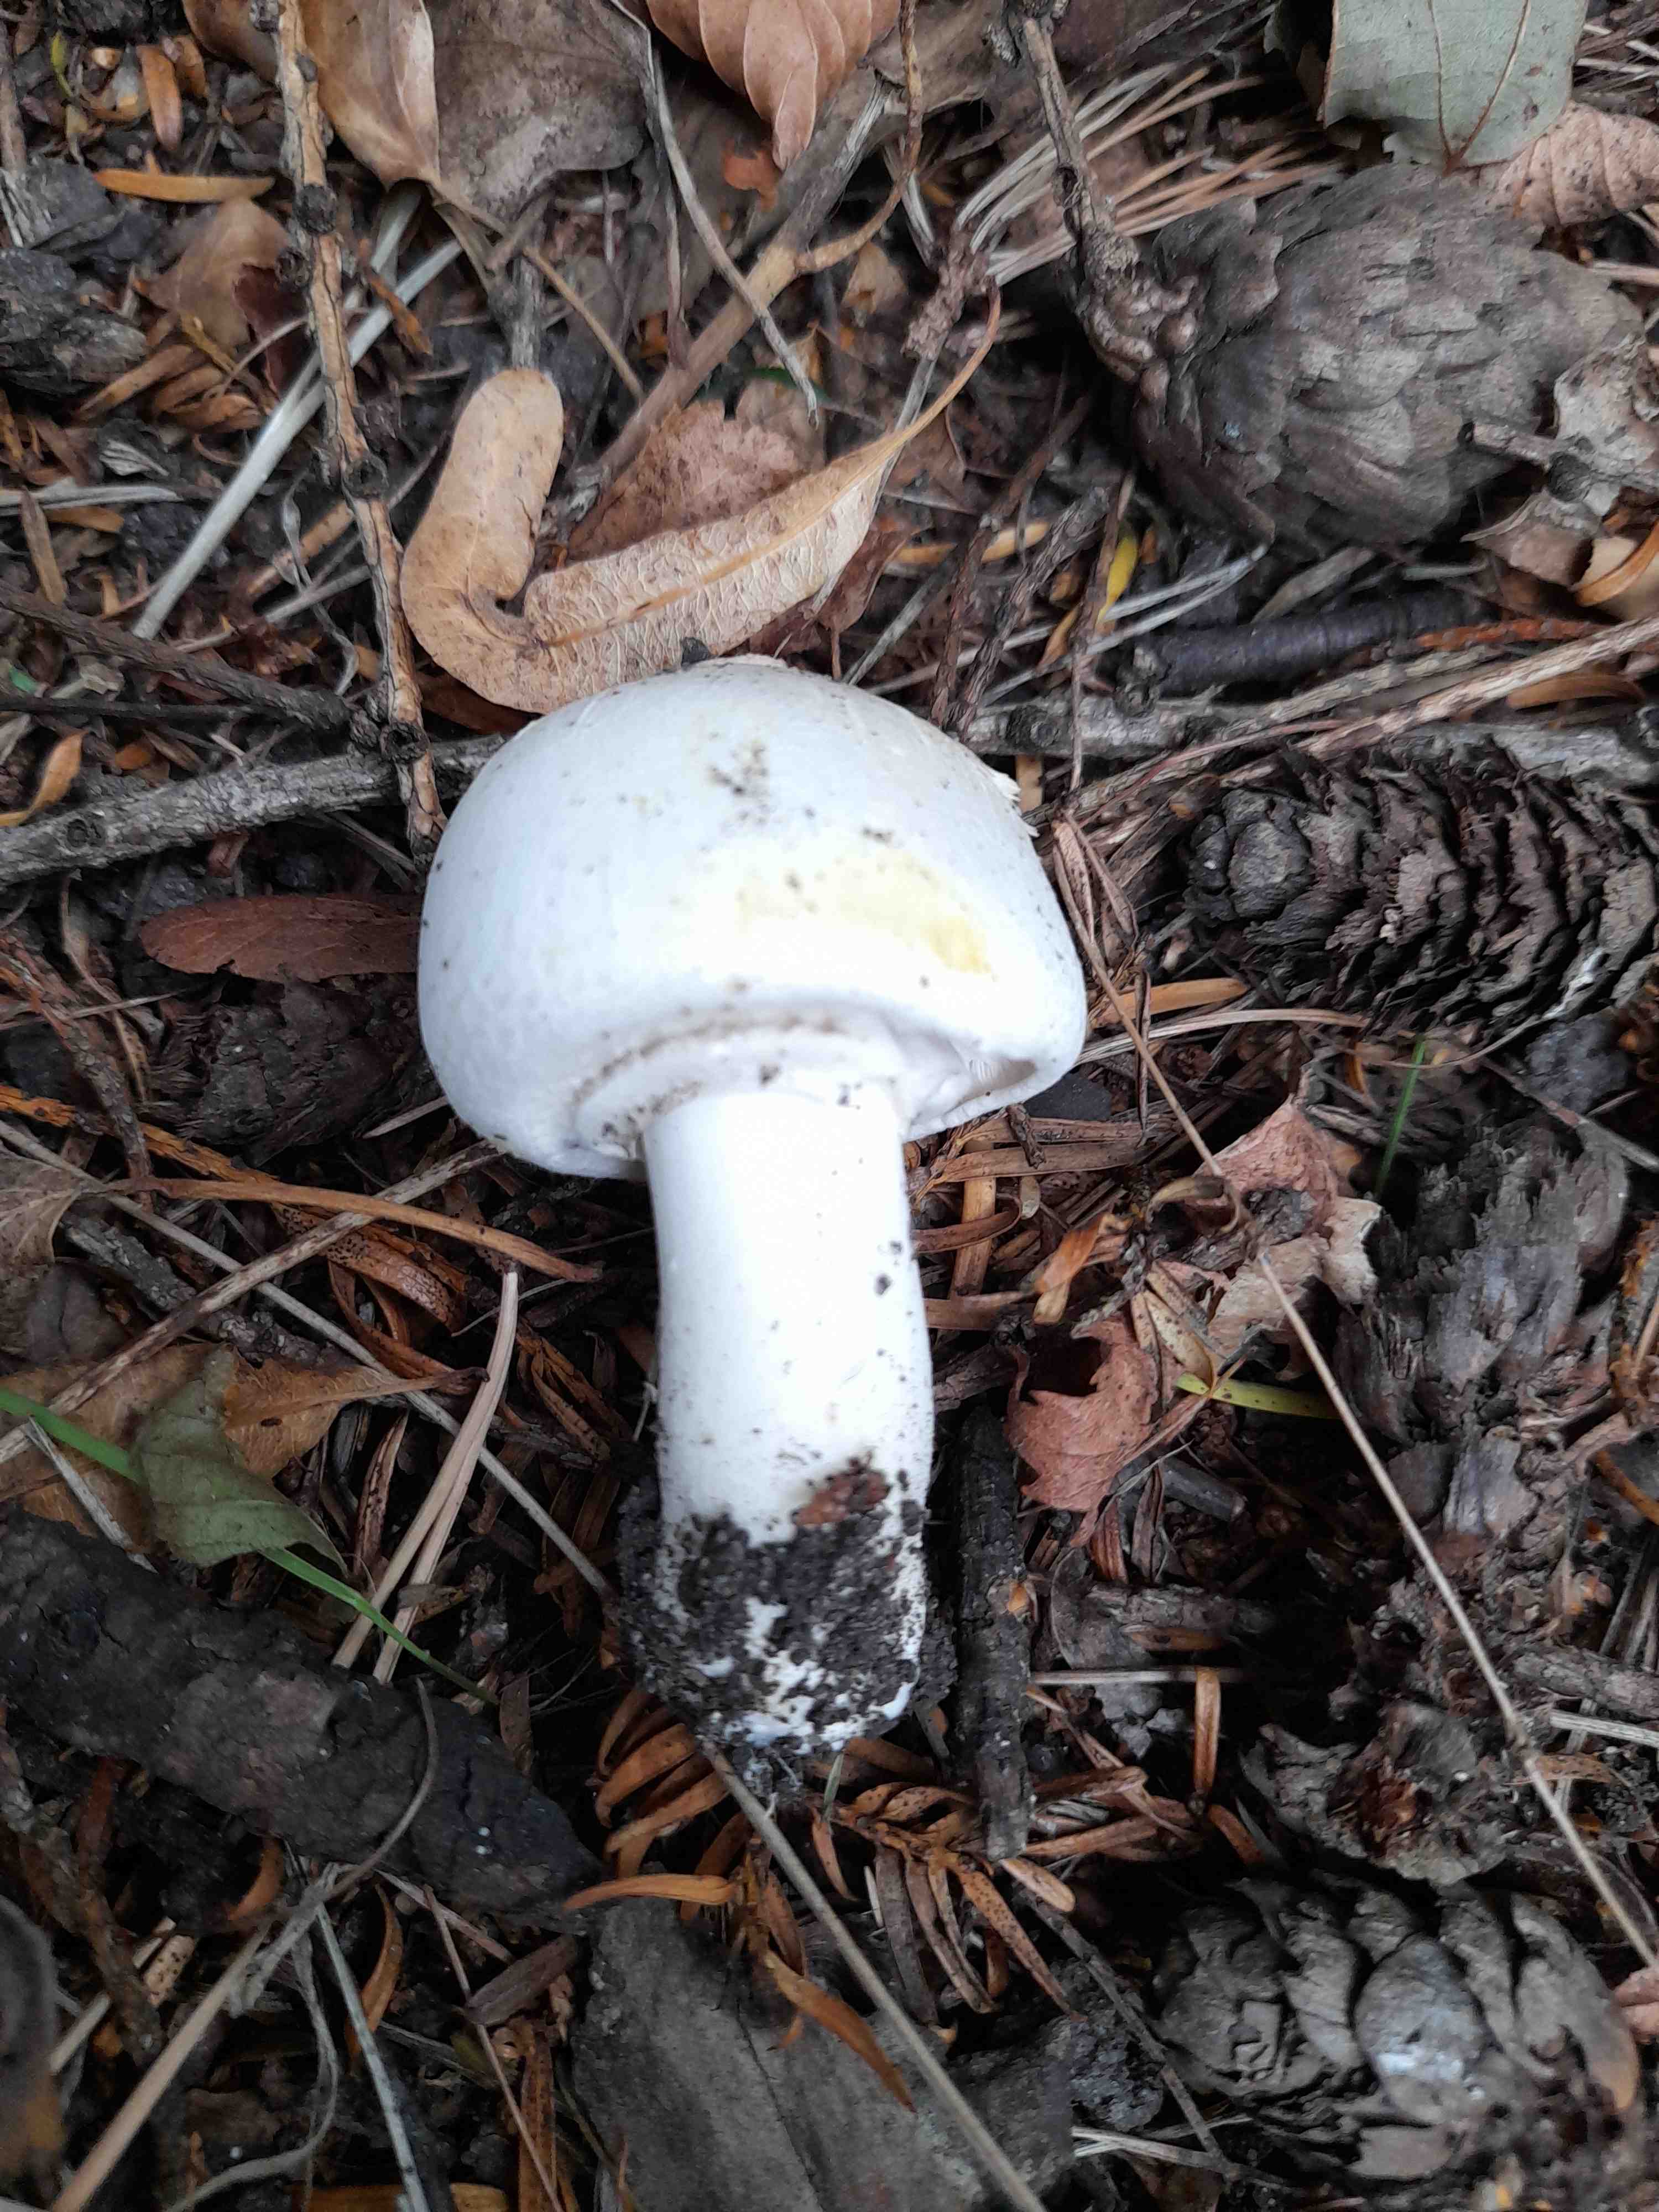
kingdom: Fungi
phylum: Basidiomycota
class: Agaricomycetes
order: Agaricales
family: Agaricaceae
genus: Agaricus
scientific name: Agaricus xanthodermus
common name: karbol-champignon
